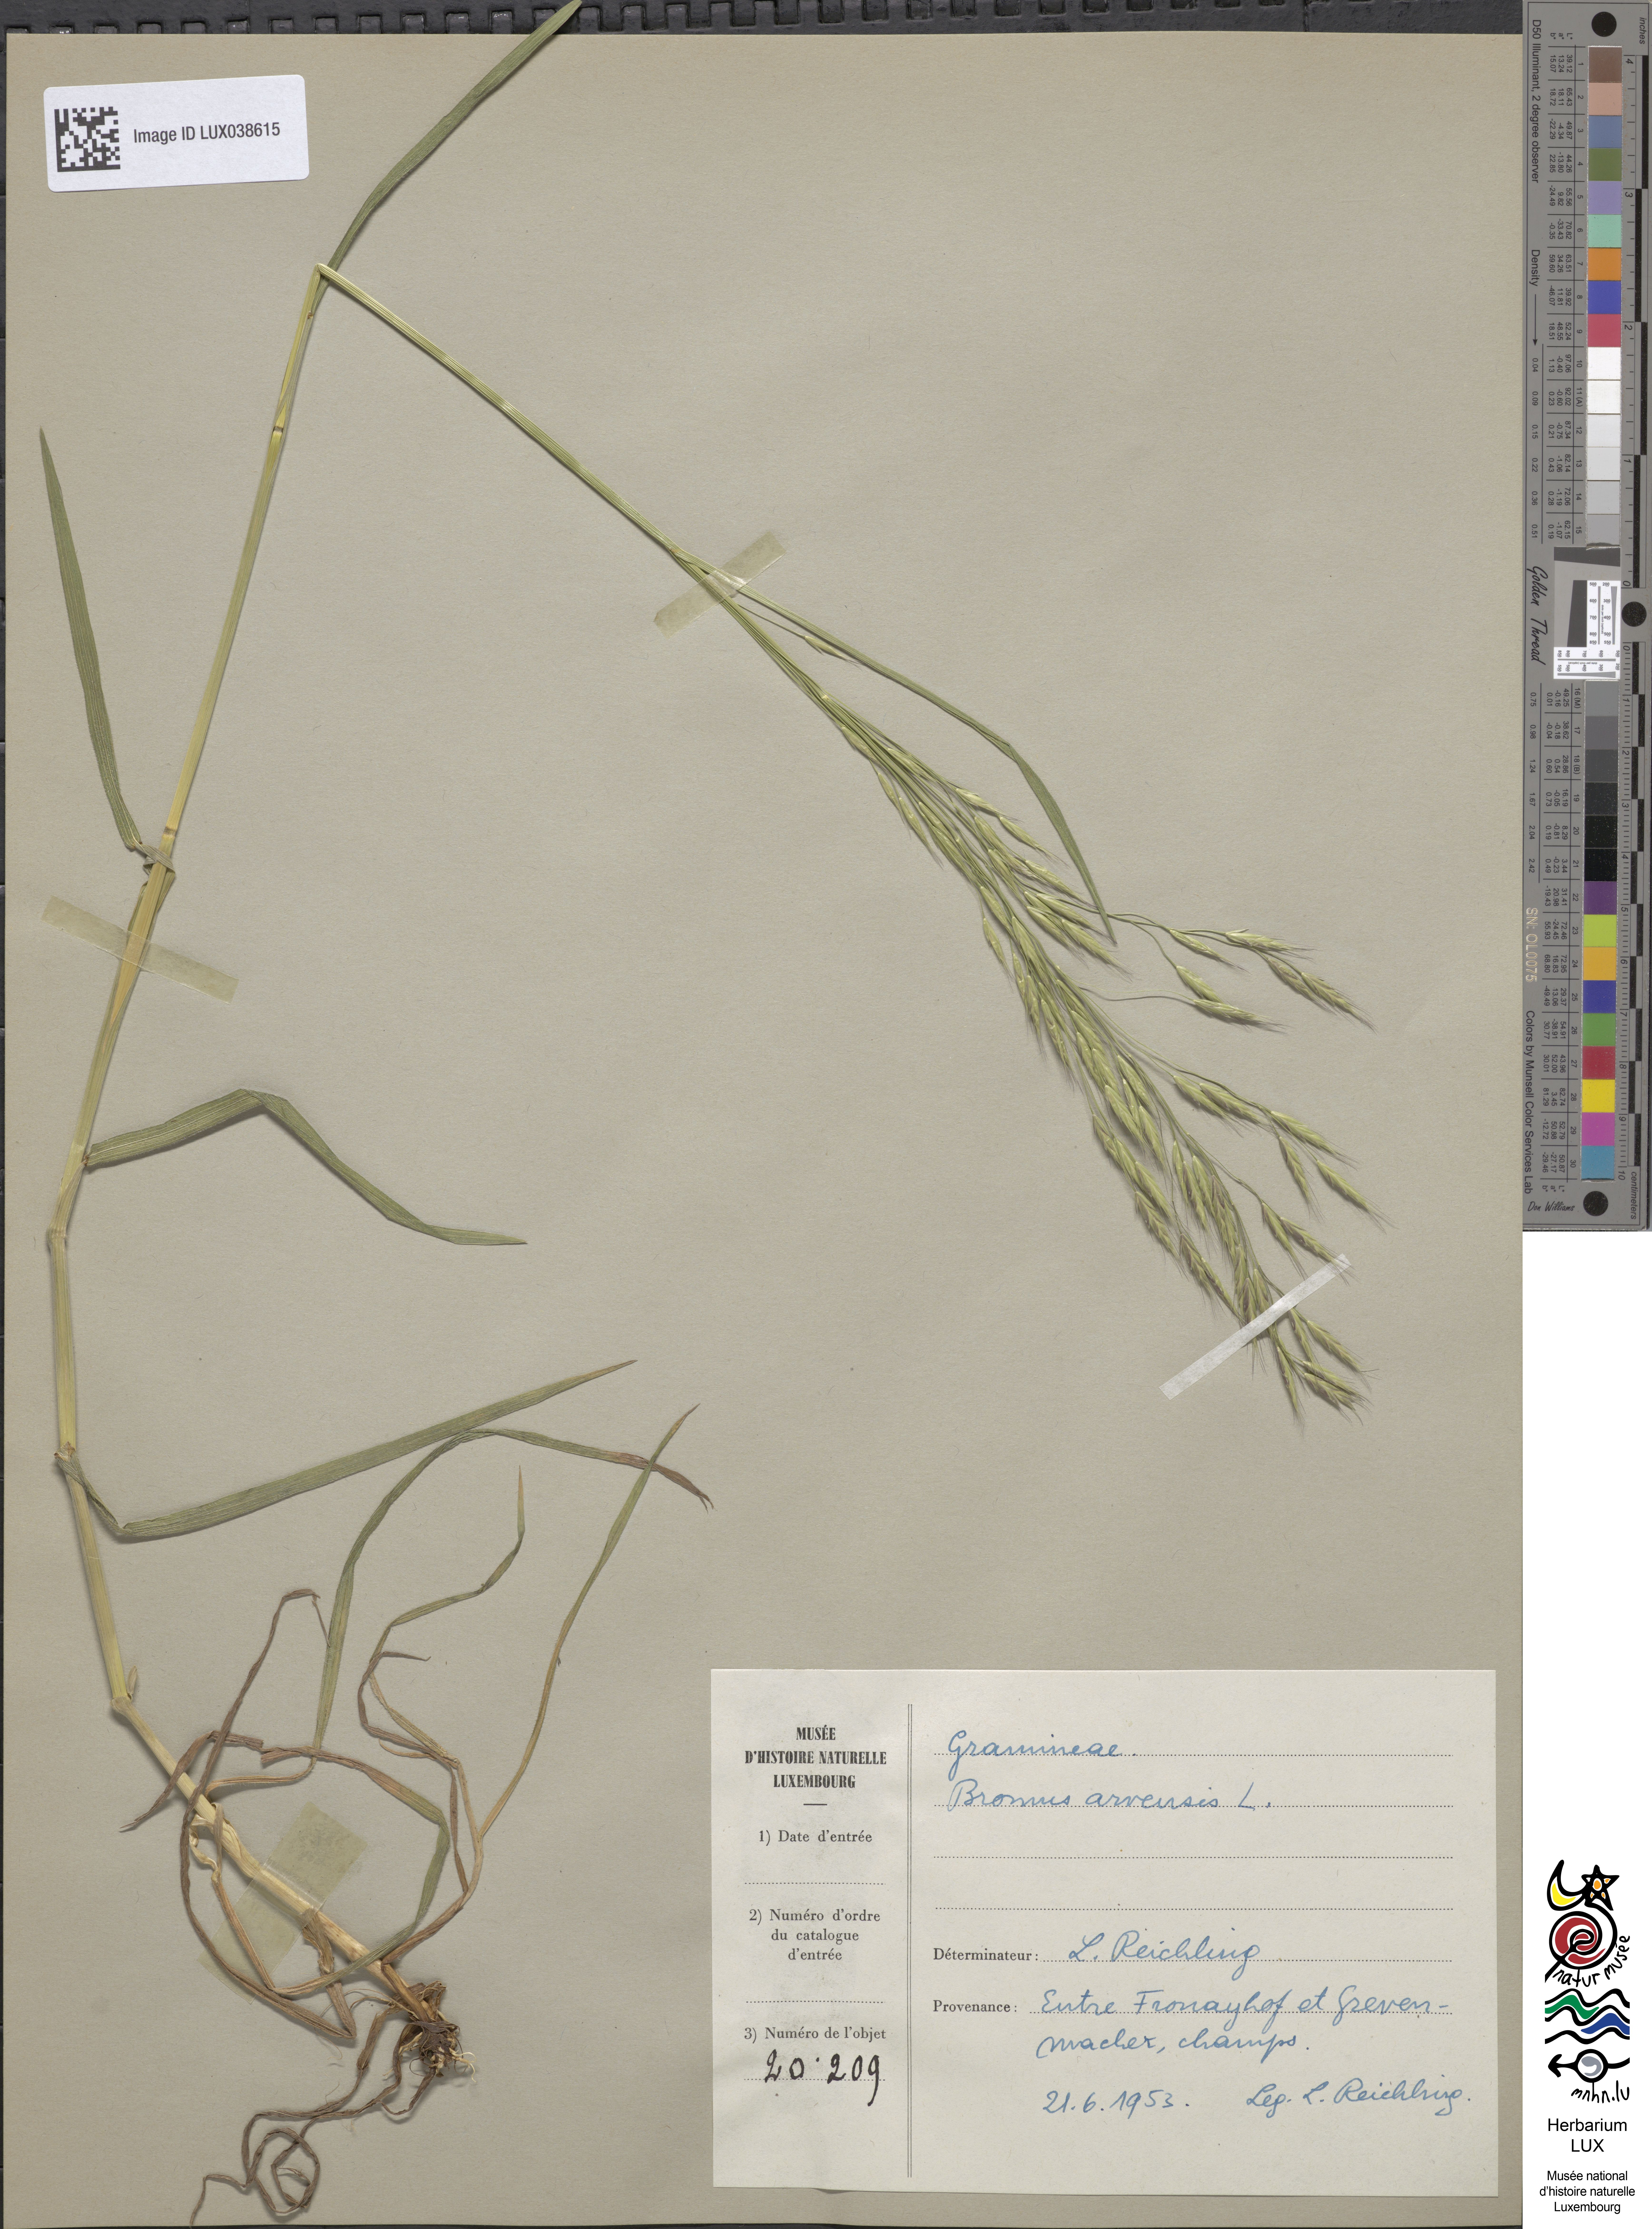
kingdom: Plantae
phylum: Tracheophyta
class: Liliopsida
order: Poales
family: Poaceae
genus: Bromus
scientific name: Bromus arvensis
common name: Field brome
